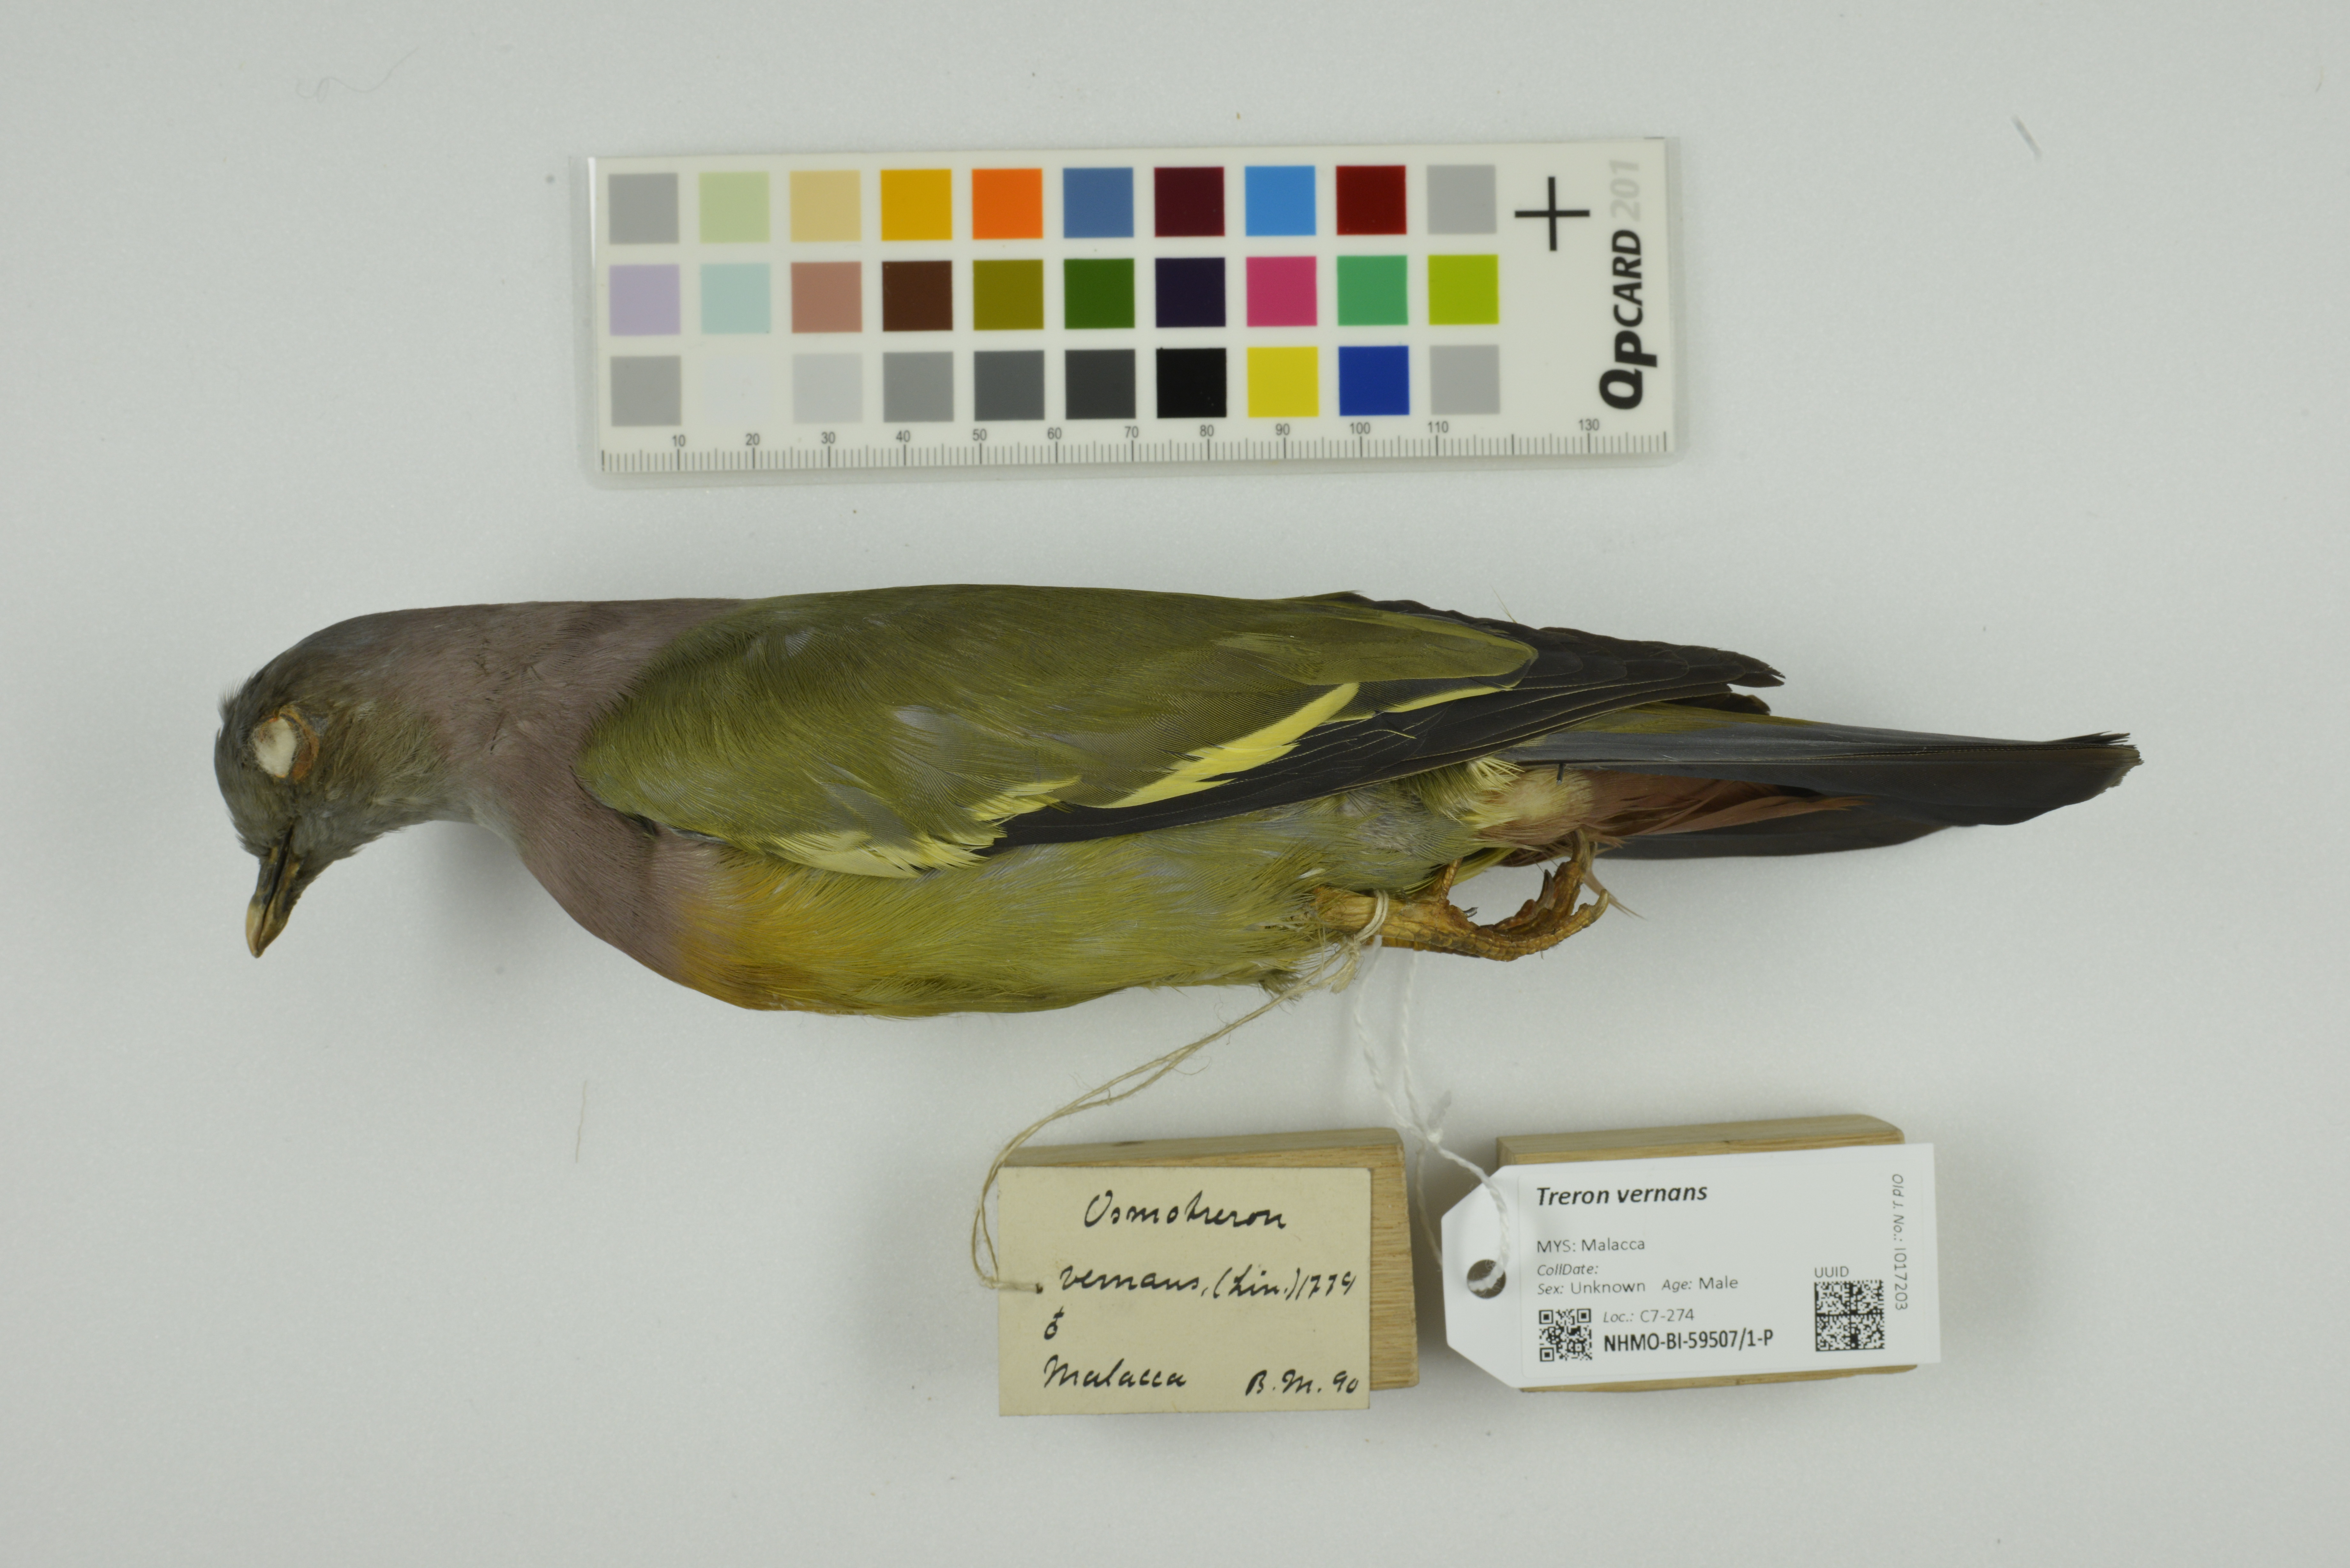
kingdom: Animalia
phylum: Chordata
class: Aves
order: Columbiformes
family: Columbidae
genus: Treron
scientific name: Treron vernans
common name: Pink-necked green pigeon
